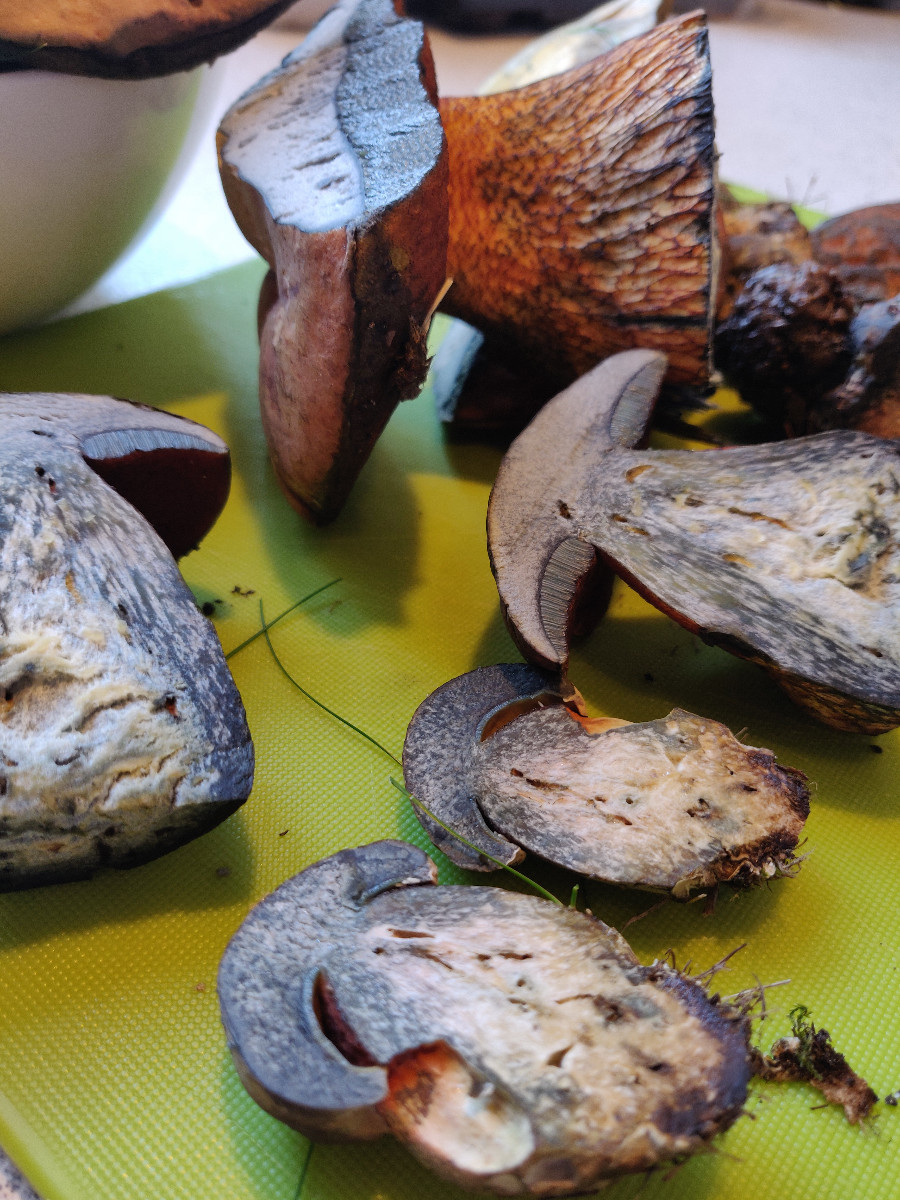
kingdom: Fungi
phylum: Basidiomycota
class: Agaricomycetes
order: Boletales
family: Boletaceae
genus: Suillellus
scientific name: Suillellus luridus
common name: netstokket indigorørhat
